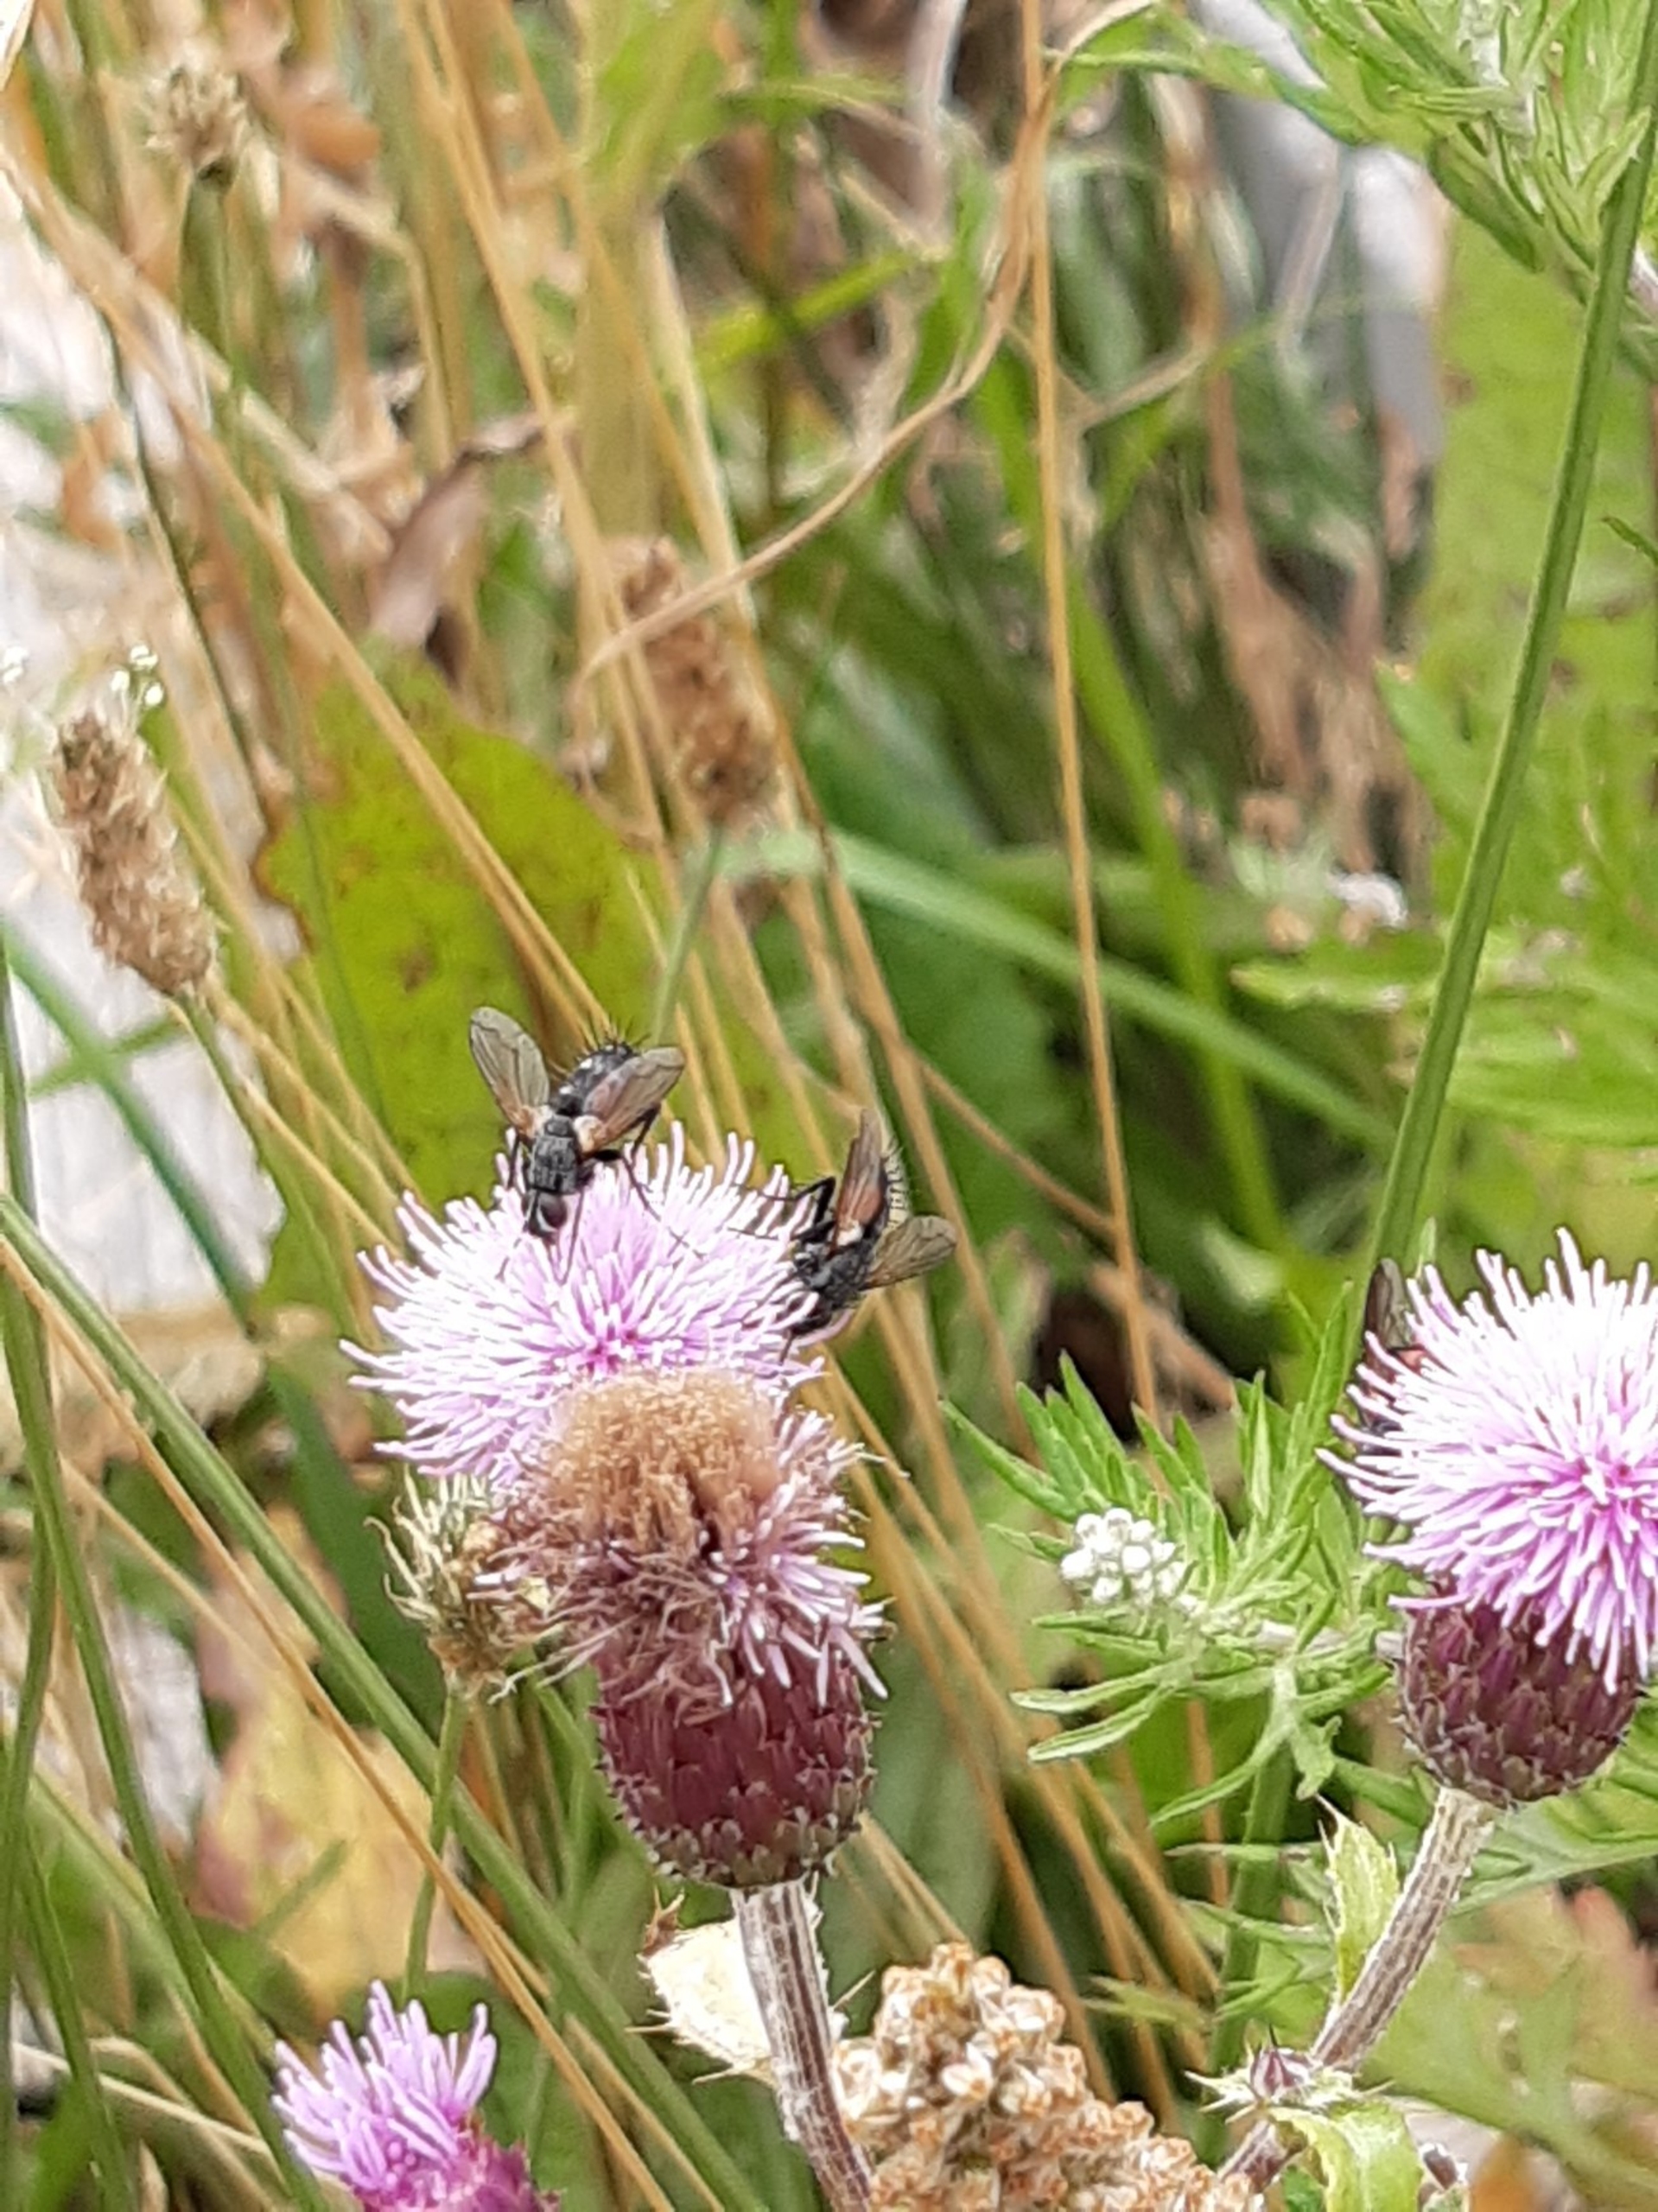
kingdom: Animalia
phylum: Arthropoda
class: Insecta
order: Diptera
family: Tachinidae
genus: Eriothrix
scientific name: Eriothrix rufomaculatus
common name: Rød snylteflue
